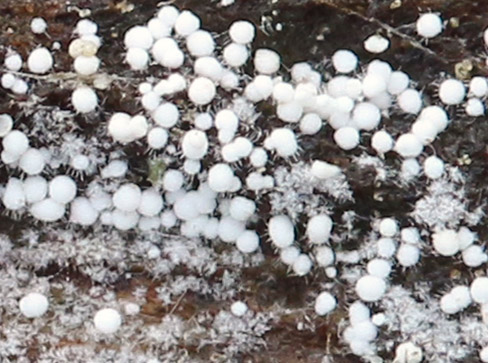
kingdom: Fungi
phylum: Basidiomycota
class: Agaricomycetes
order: Trechisporales
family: Hydnodontaceae
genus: Subulicystidium
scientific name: Subulicystidium longisporum
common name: almindelig pigtrådshinde
